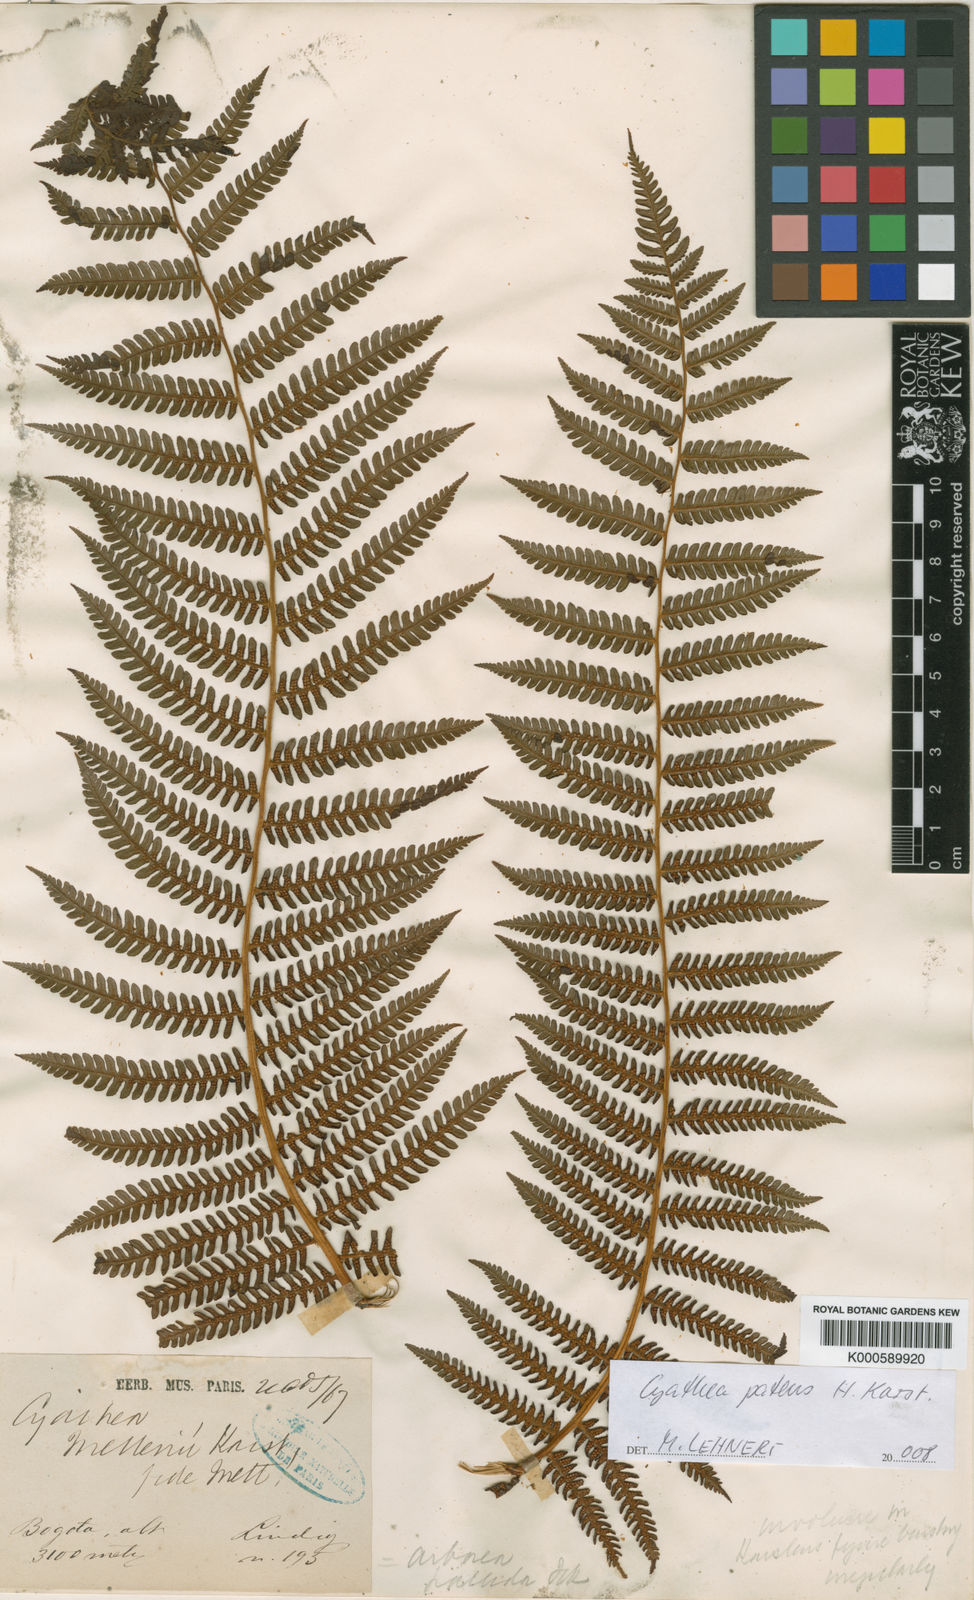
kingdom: Plantae
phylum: Tracheophyta
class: Polypodiopsida
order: Cyatheales
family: Cyatheaceae
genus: Cyathea
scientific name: Cyathea squamipes
